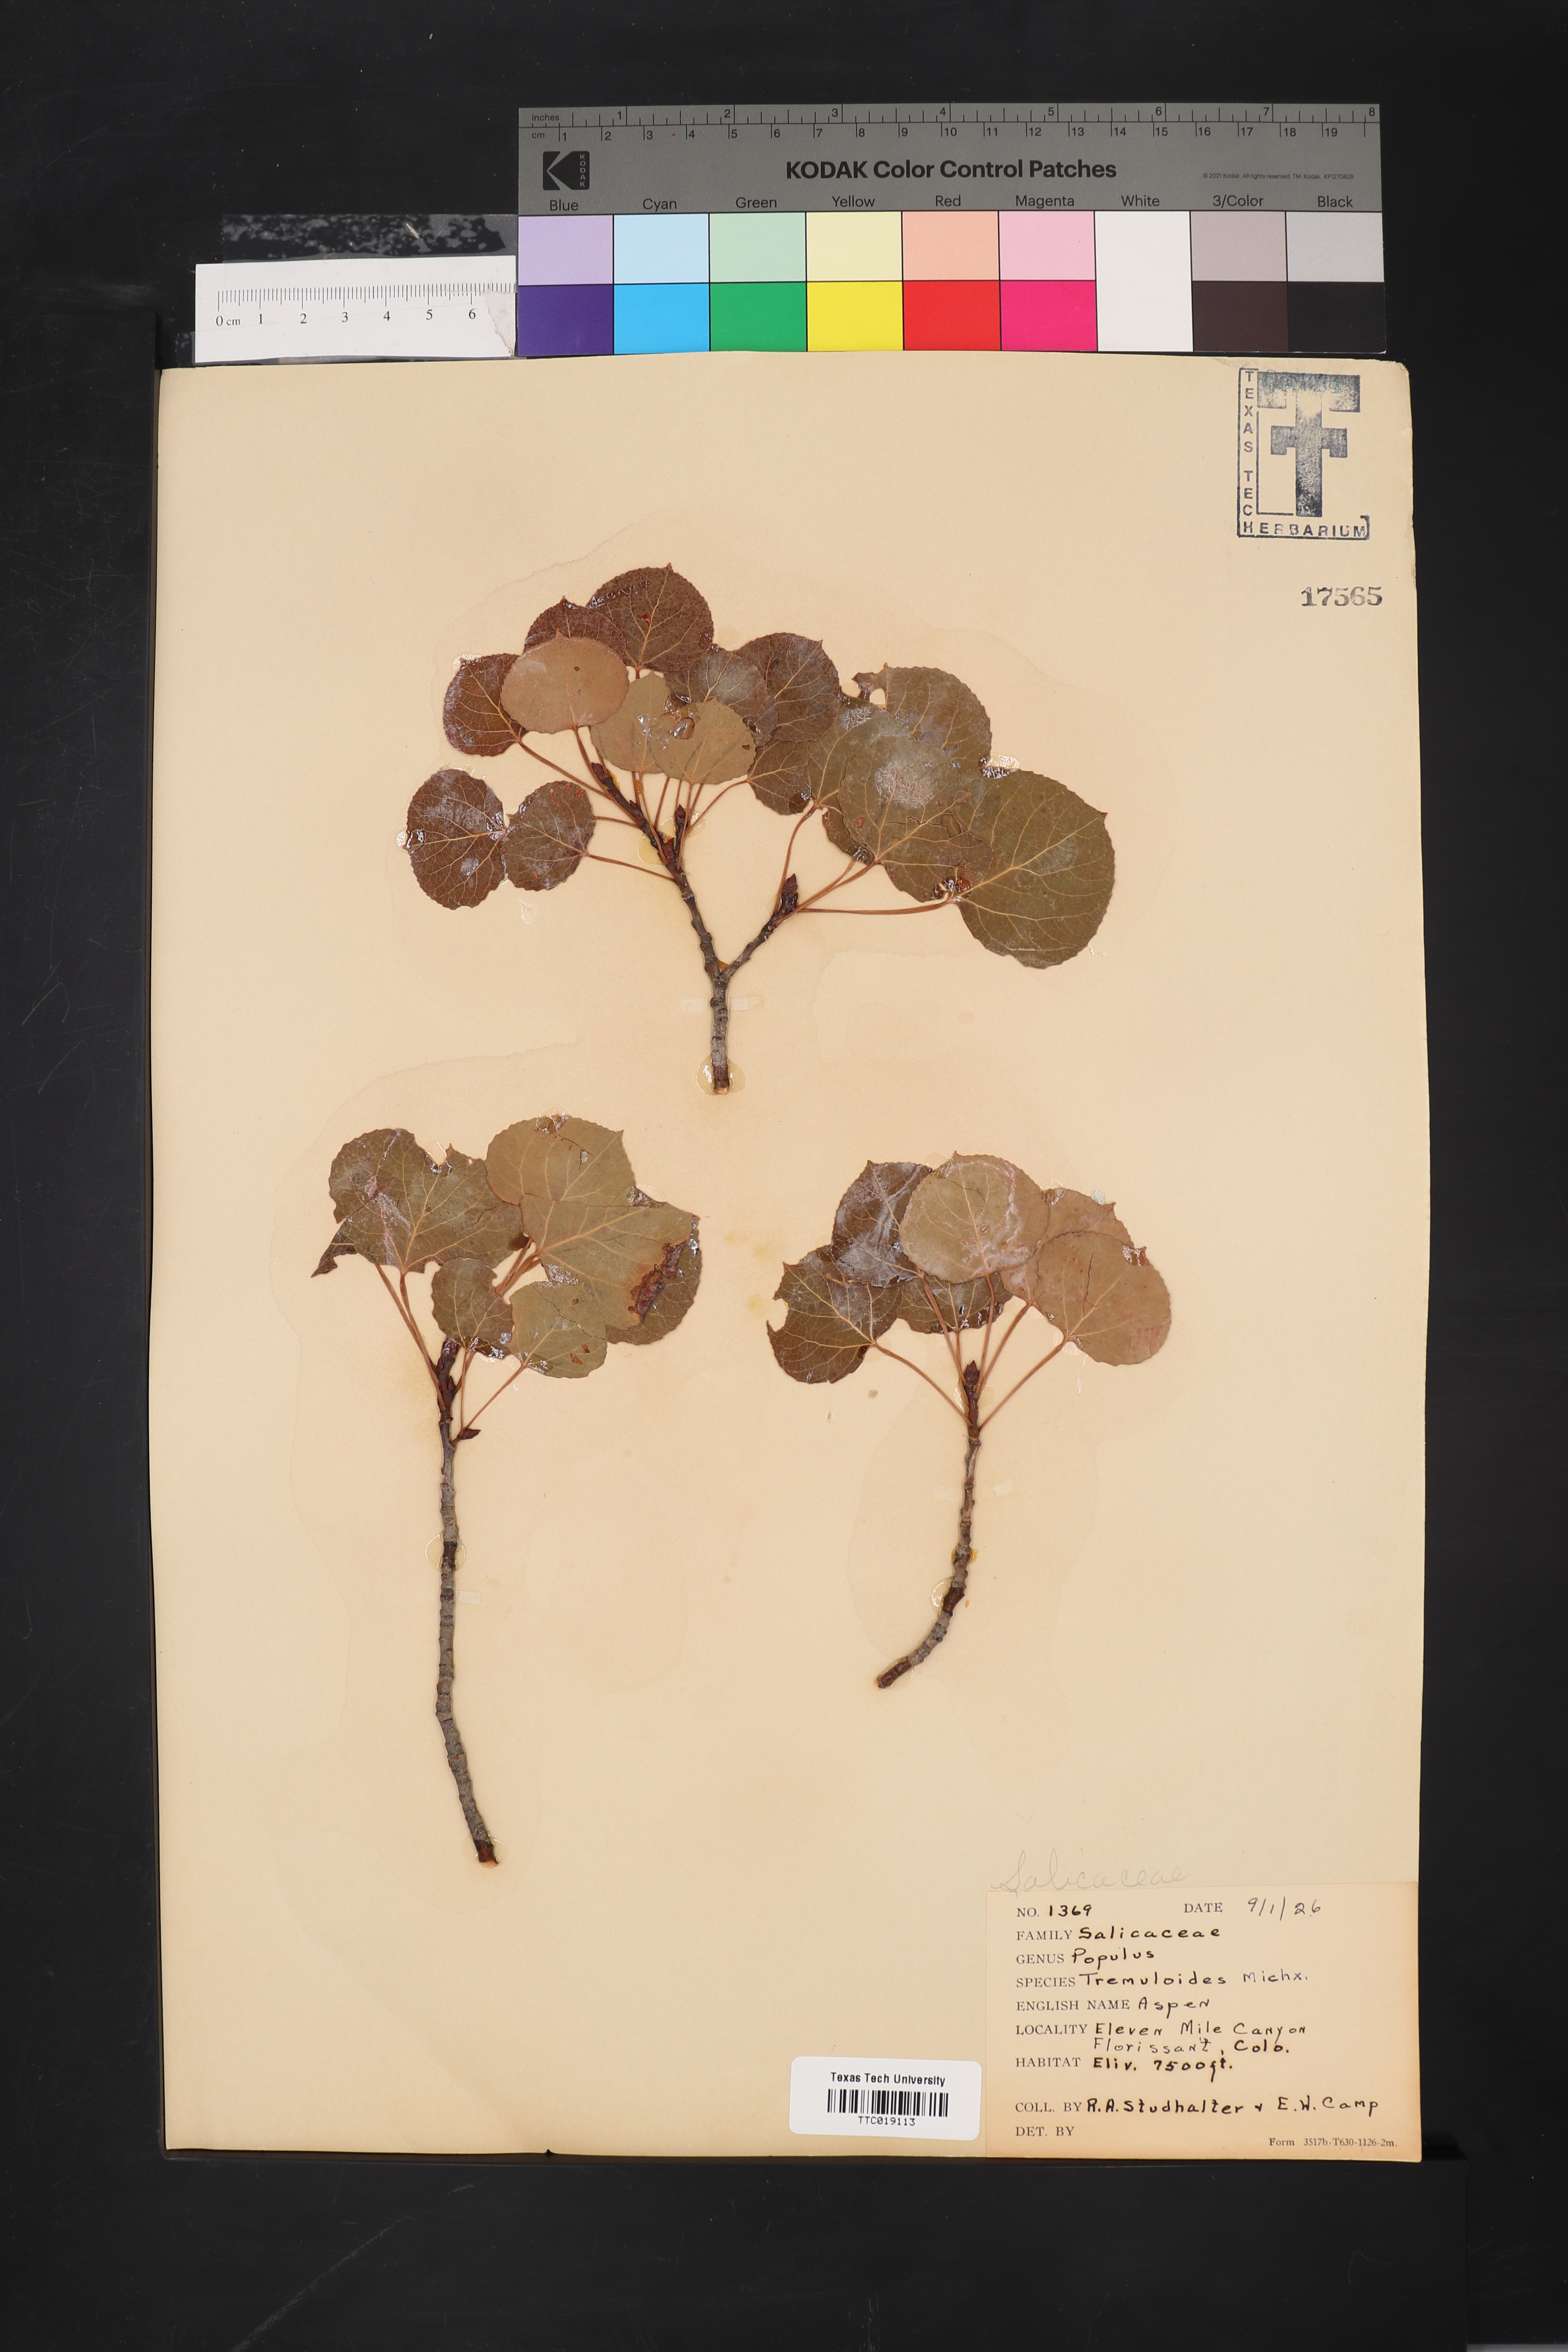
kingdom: Plantae
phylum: Tracheophyta
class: Magnoliopsida
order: Malpighiales
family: Salicaceae
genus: Populus
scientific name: Populus tremuloides
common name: Quaking aspen
